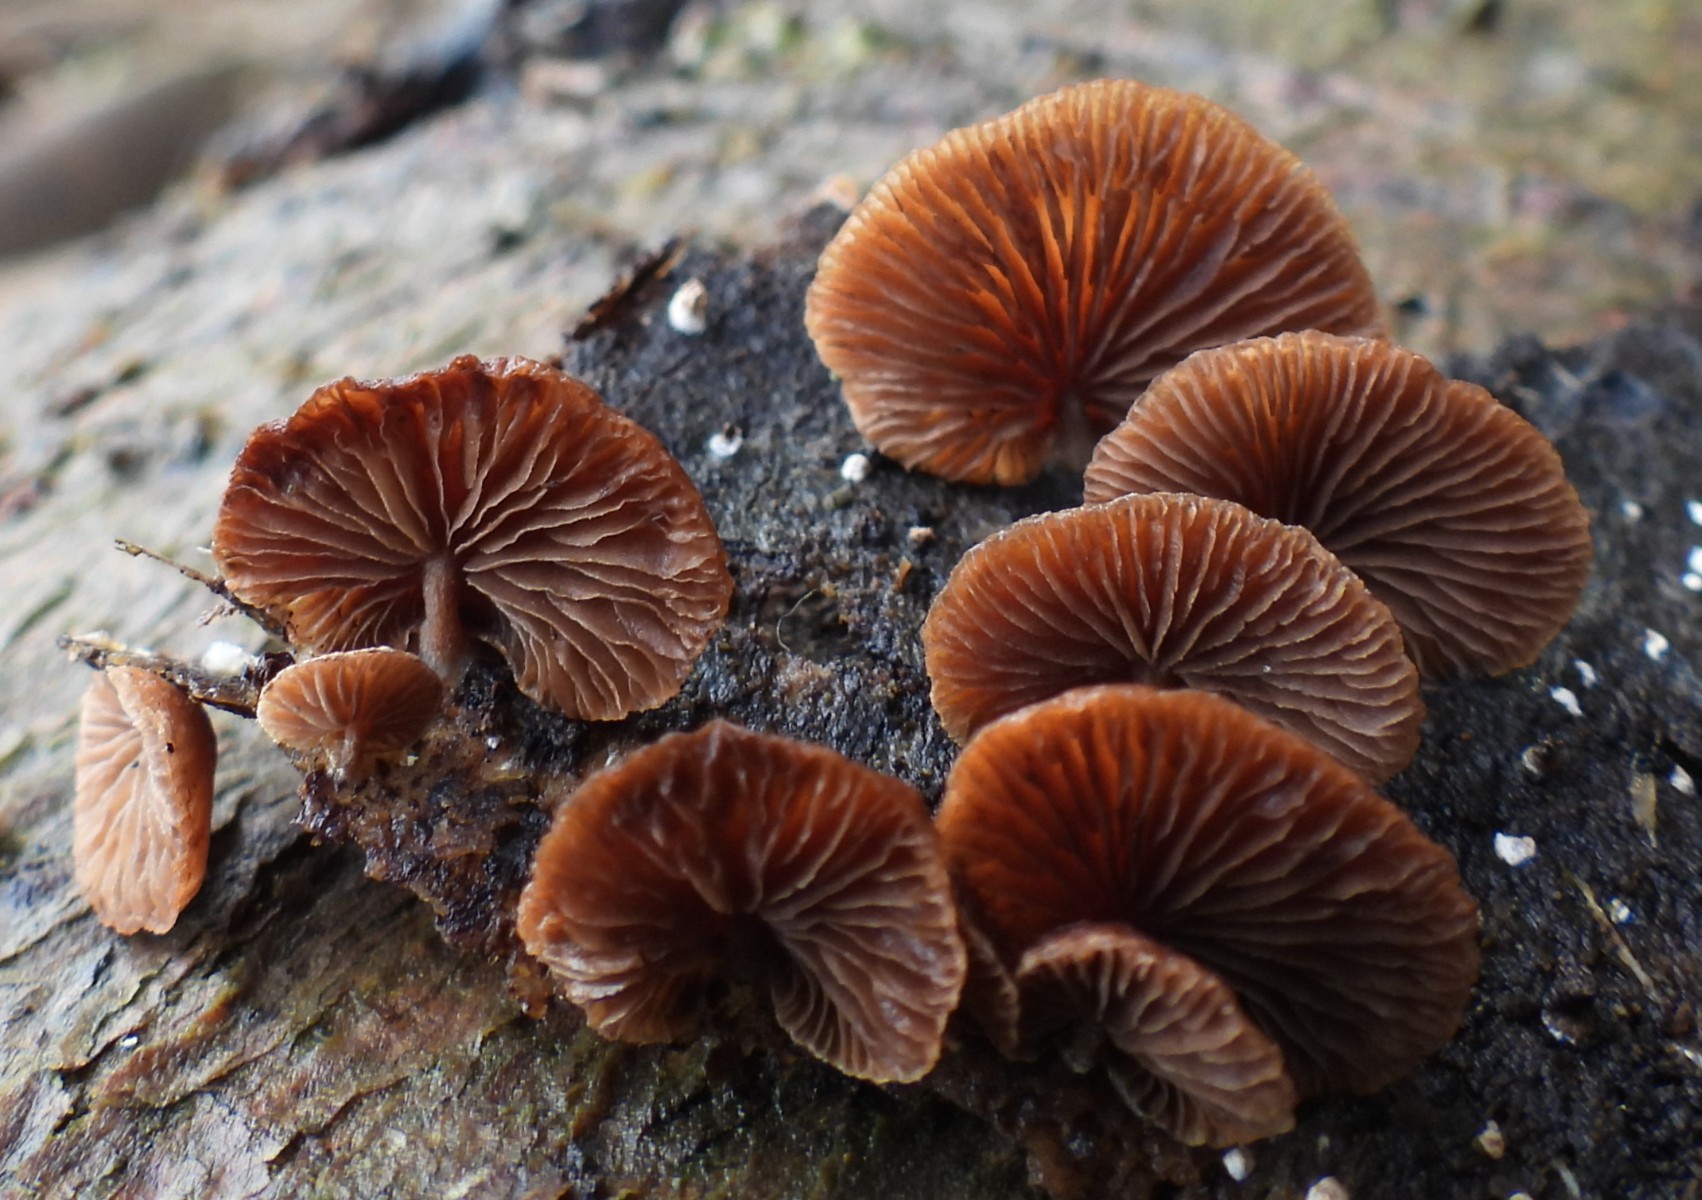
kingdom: Fungi
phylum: Basidiomycota
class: Agaricomycetes
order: Agaricales
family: Strophariaceae
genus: Deconica
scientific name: Deconica horizontalis
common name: ved-stråhat
